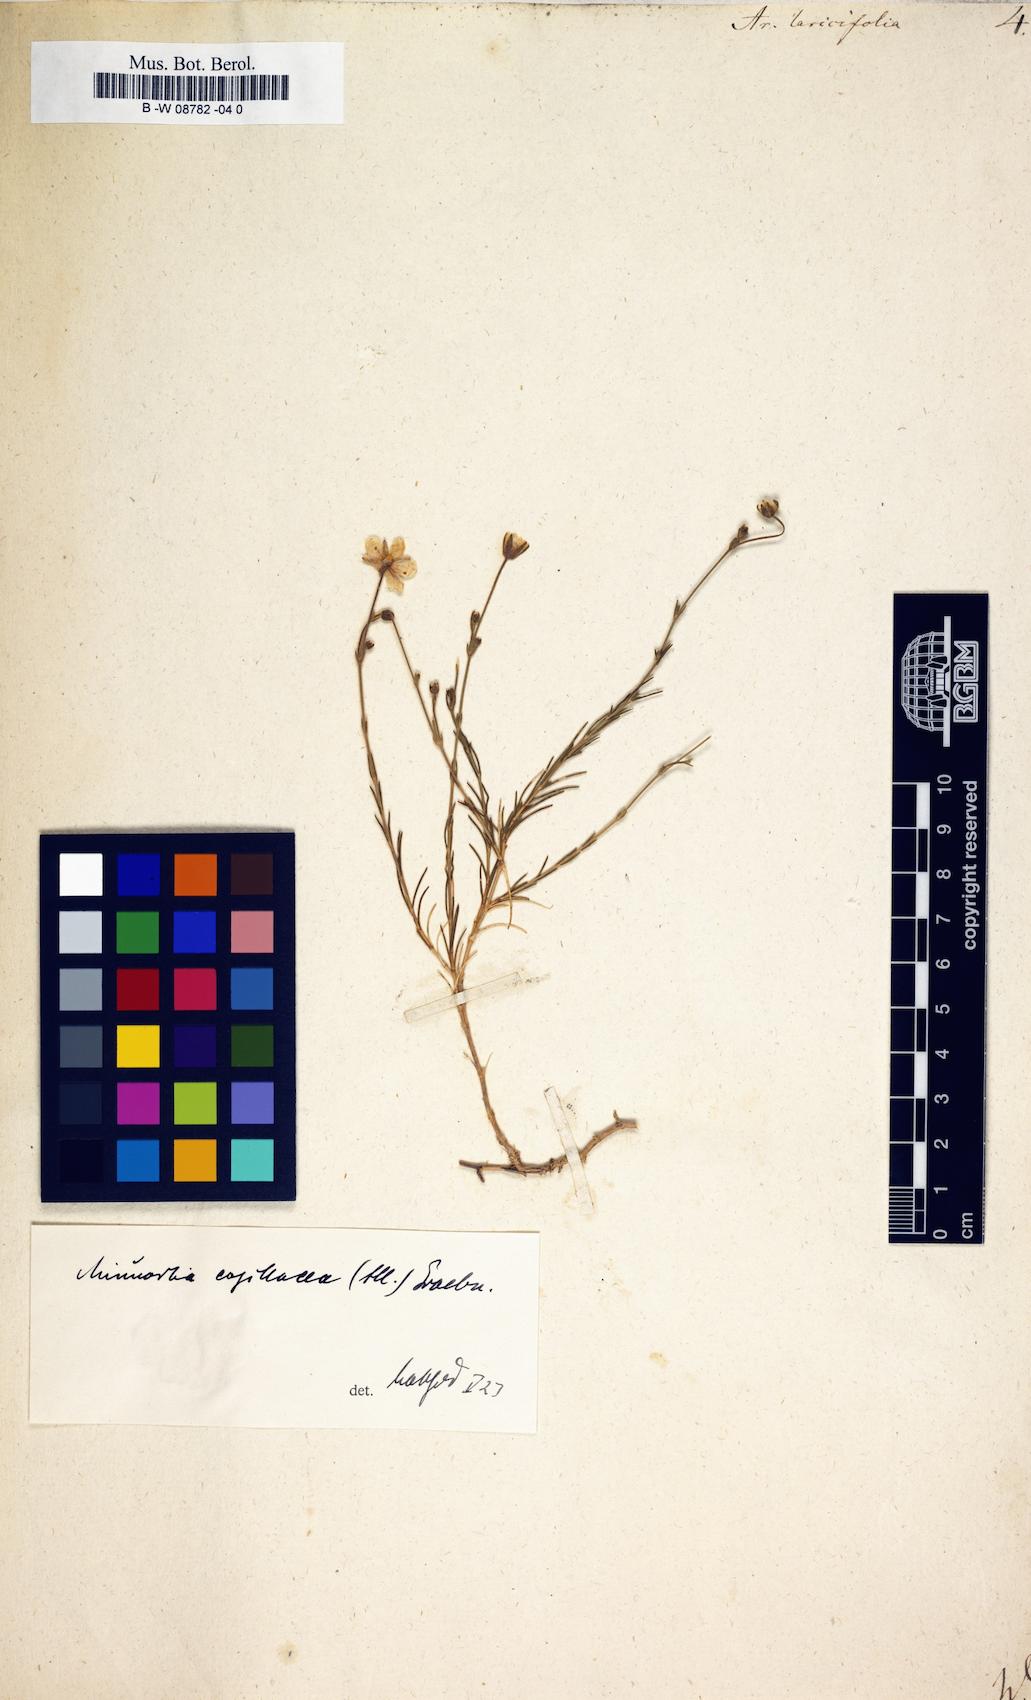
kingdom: Plantae
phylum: Tracheophyta
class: Magnoliopsida
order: Caryophyllales
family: Caryophyllaceae
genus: Cherleria
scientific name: Cherleria laricifolia
